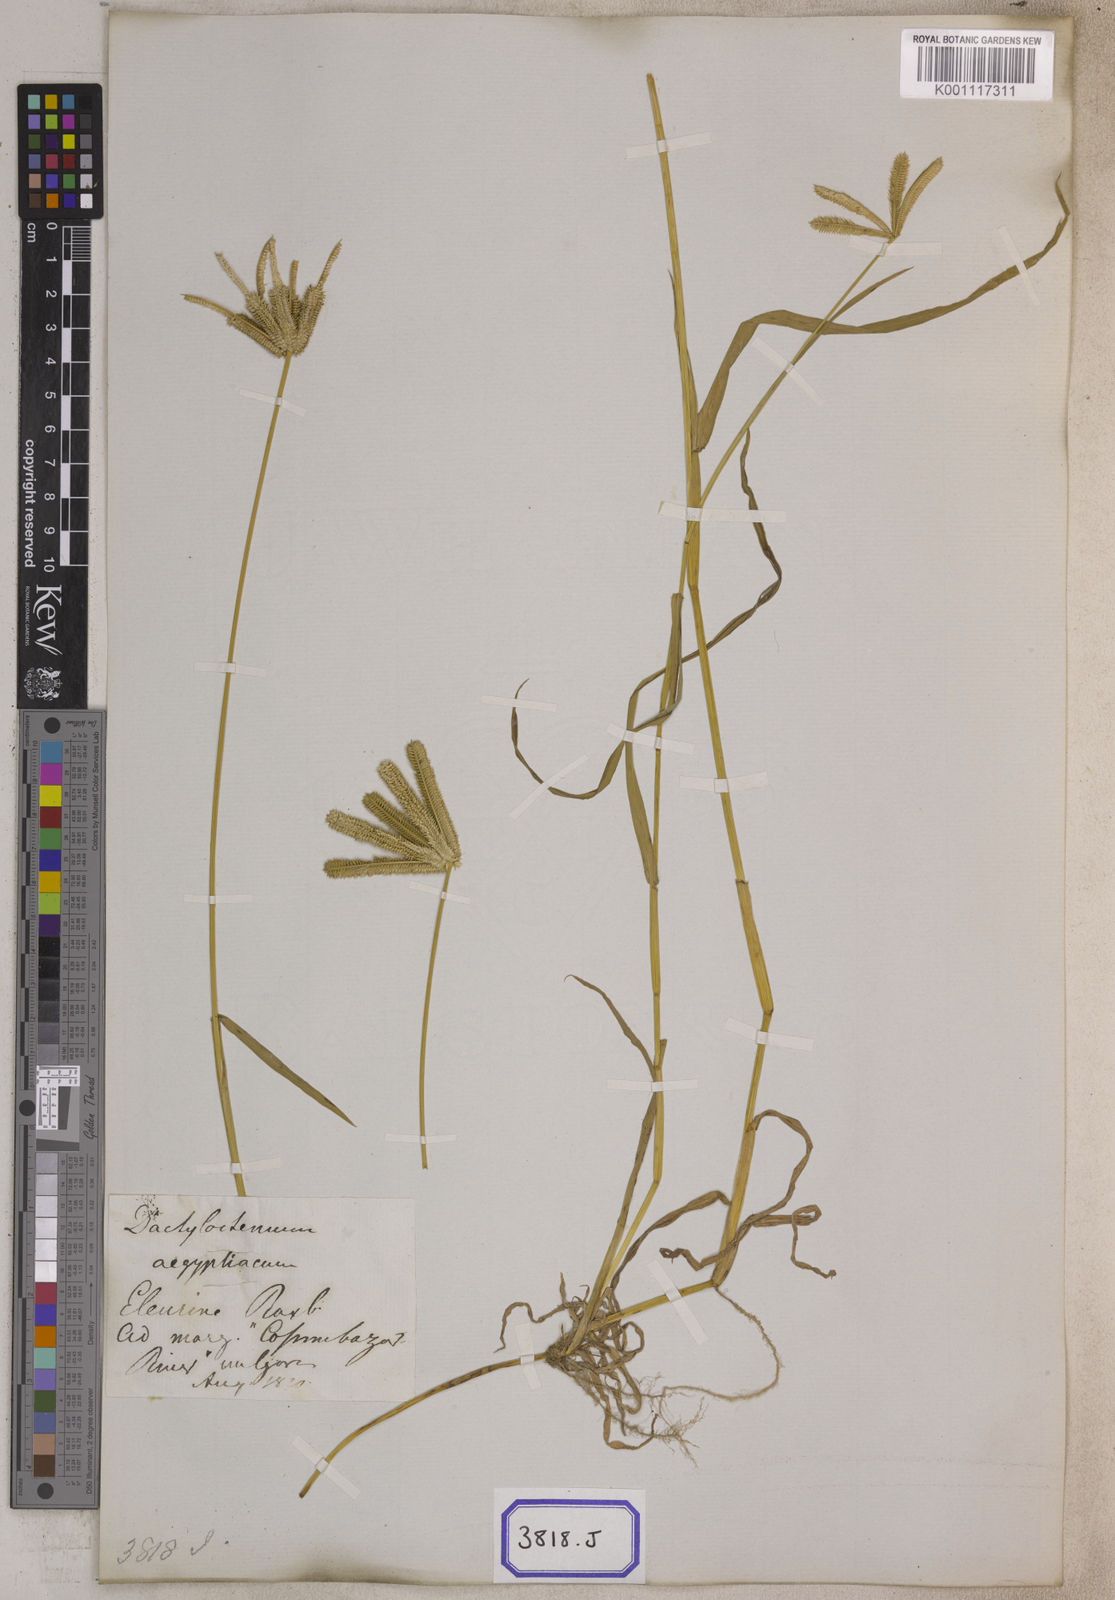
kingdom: Plantae
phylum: Tracheophyta
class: Liliopsida
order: Poales
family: Poaceae
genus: Eleusine
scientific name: Eleusine
